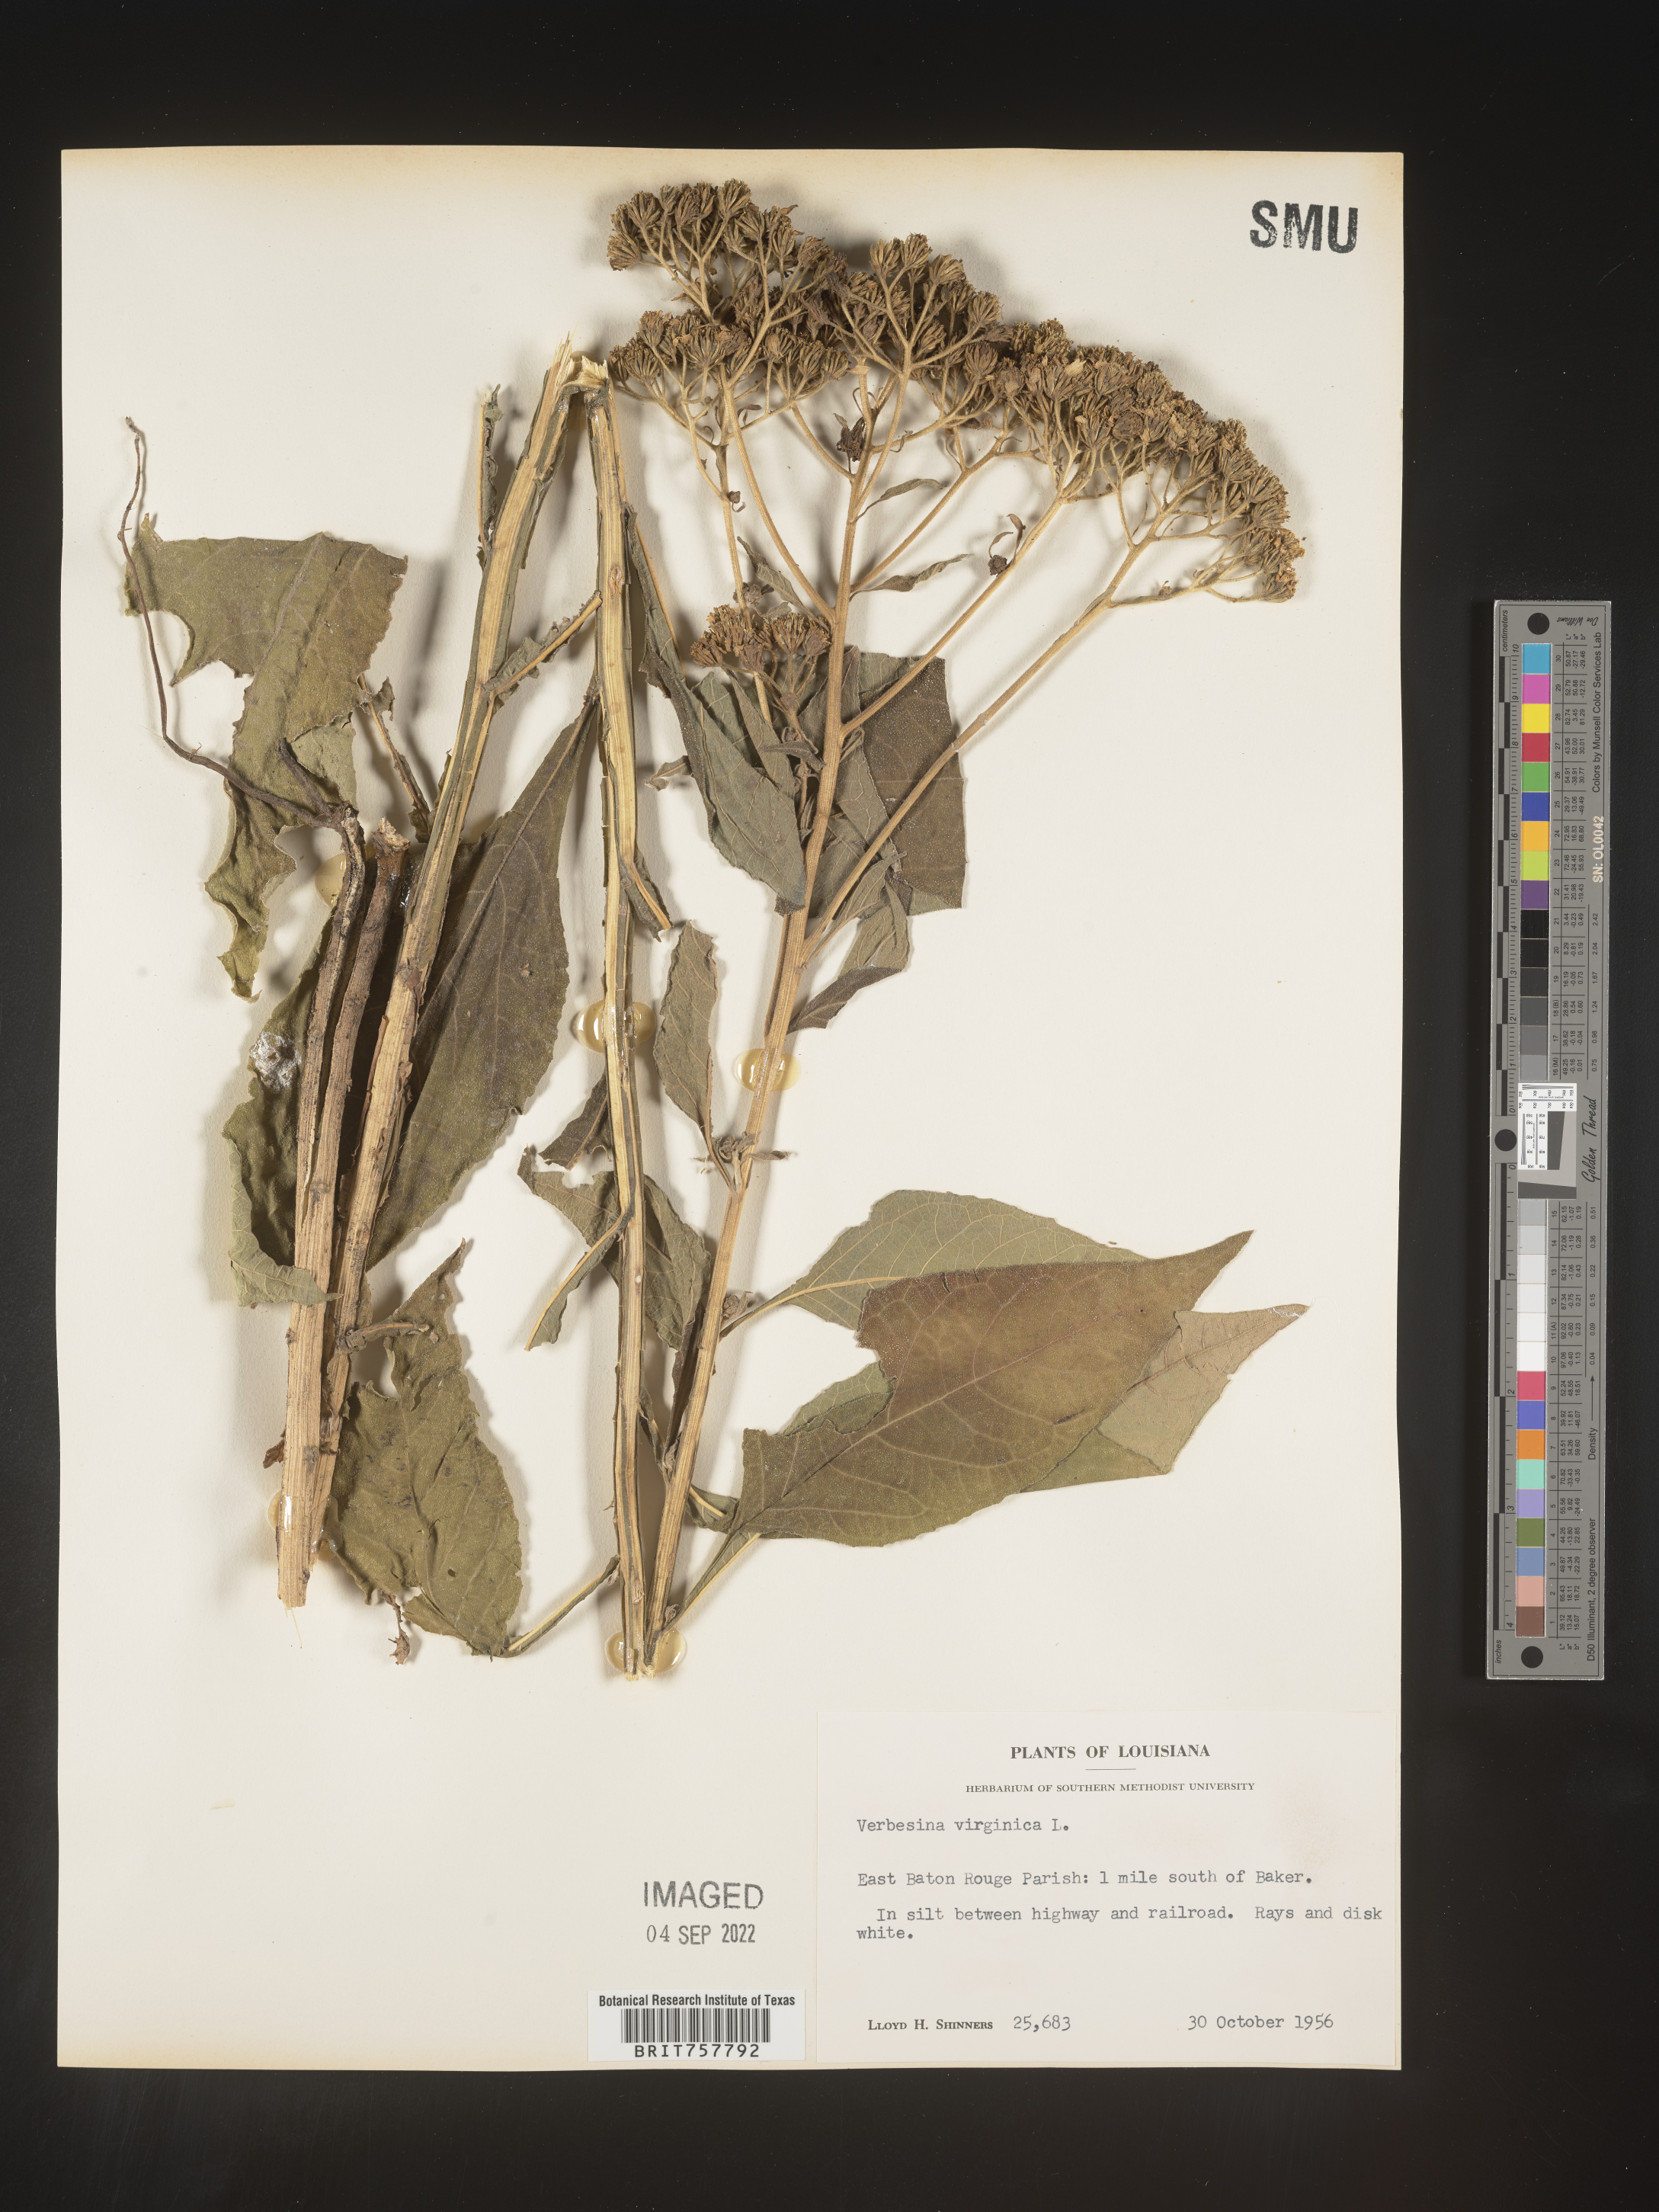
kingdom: Plantae
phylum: Tracheophyta
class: Magnoliopsida
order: Asterales
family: Asteraceae
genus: Verbesina
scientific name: Verbesina virginica
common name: Frostweed
